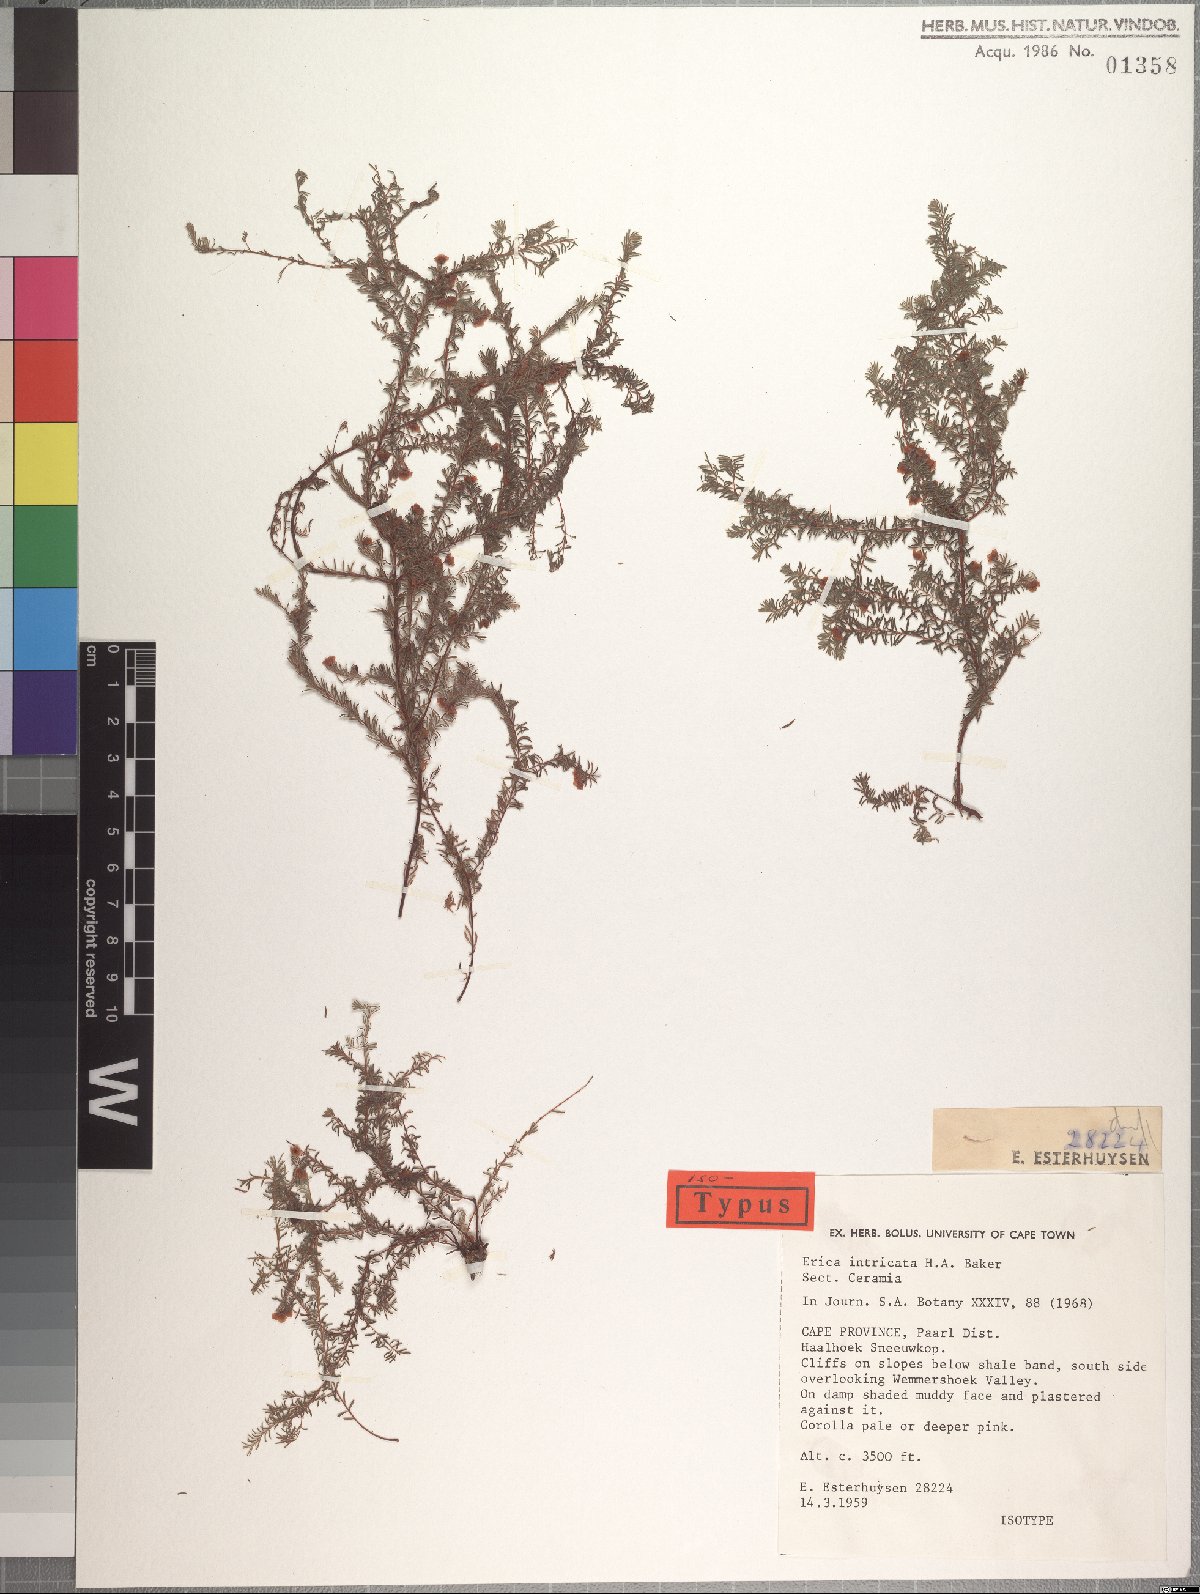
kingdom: Plantae
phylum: Tracheophyta
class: Magnoliopsida
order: Ericales
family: Ericaceae
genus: Erica
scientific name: Erica intricata
